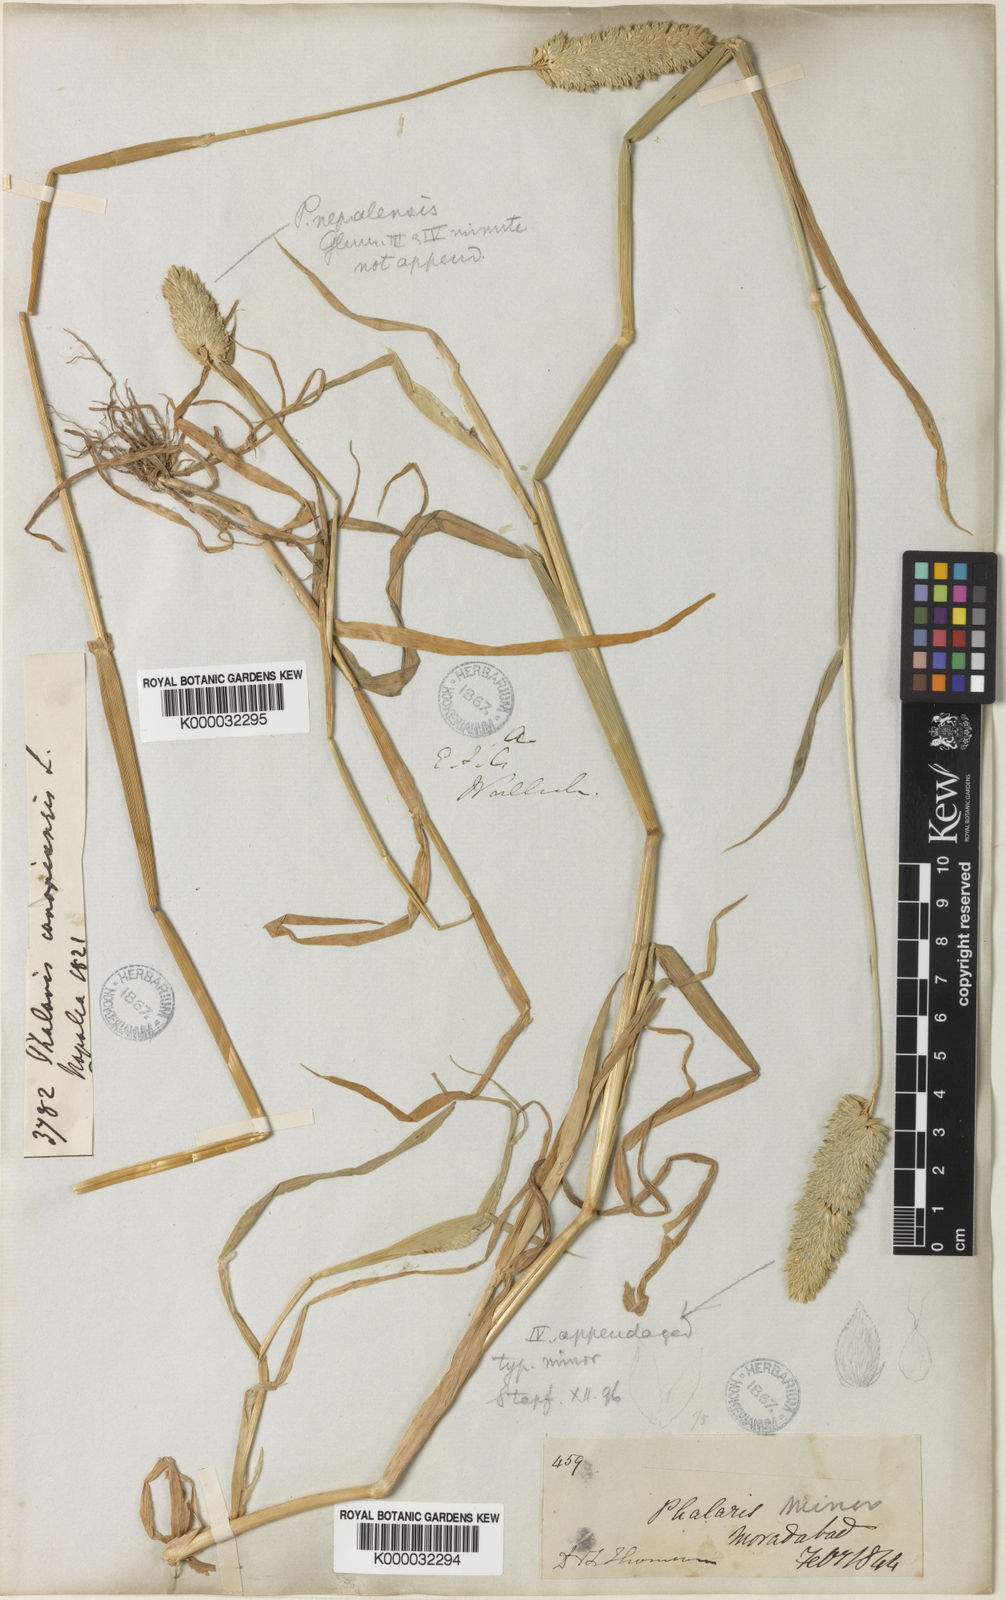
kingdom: Plantae
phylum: Tracheophyta
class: Liliopsida
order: Poales
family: Poaceae
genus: Phalaris
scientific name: Phalaris minor
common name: Littleseed canarygrass
